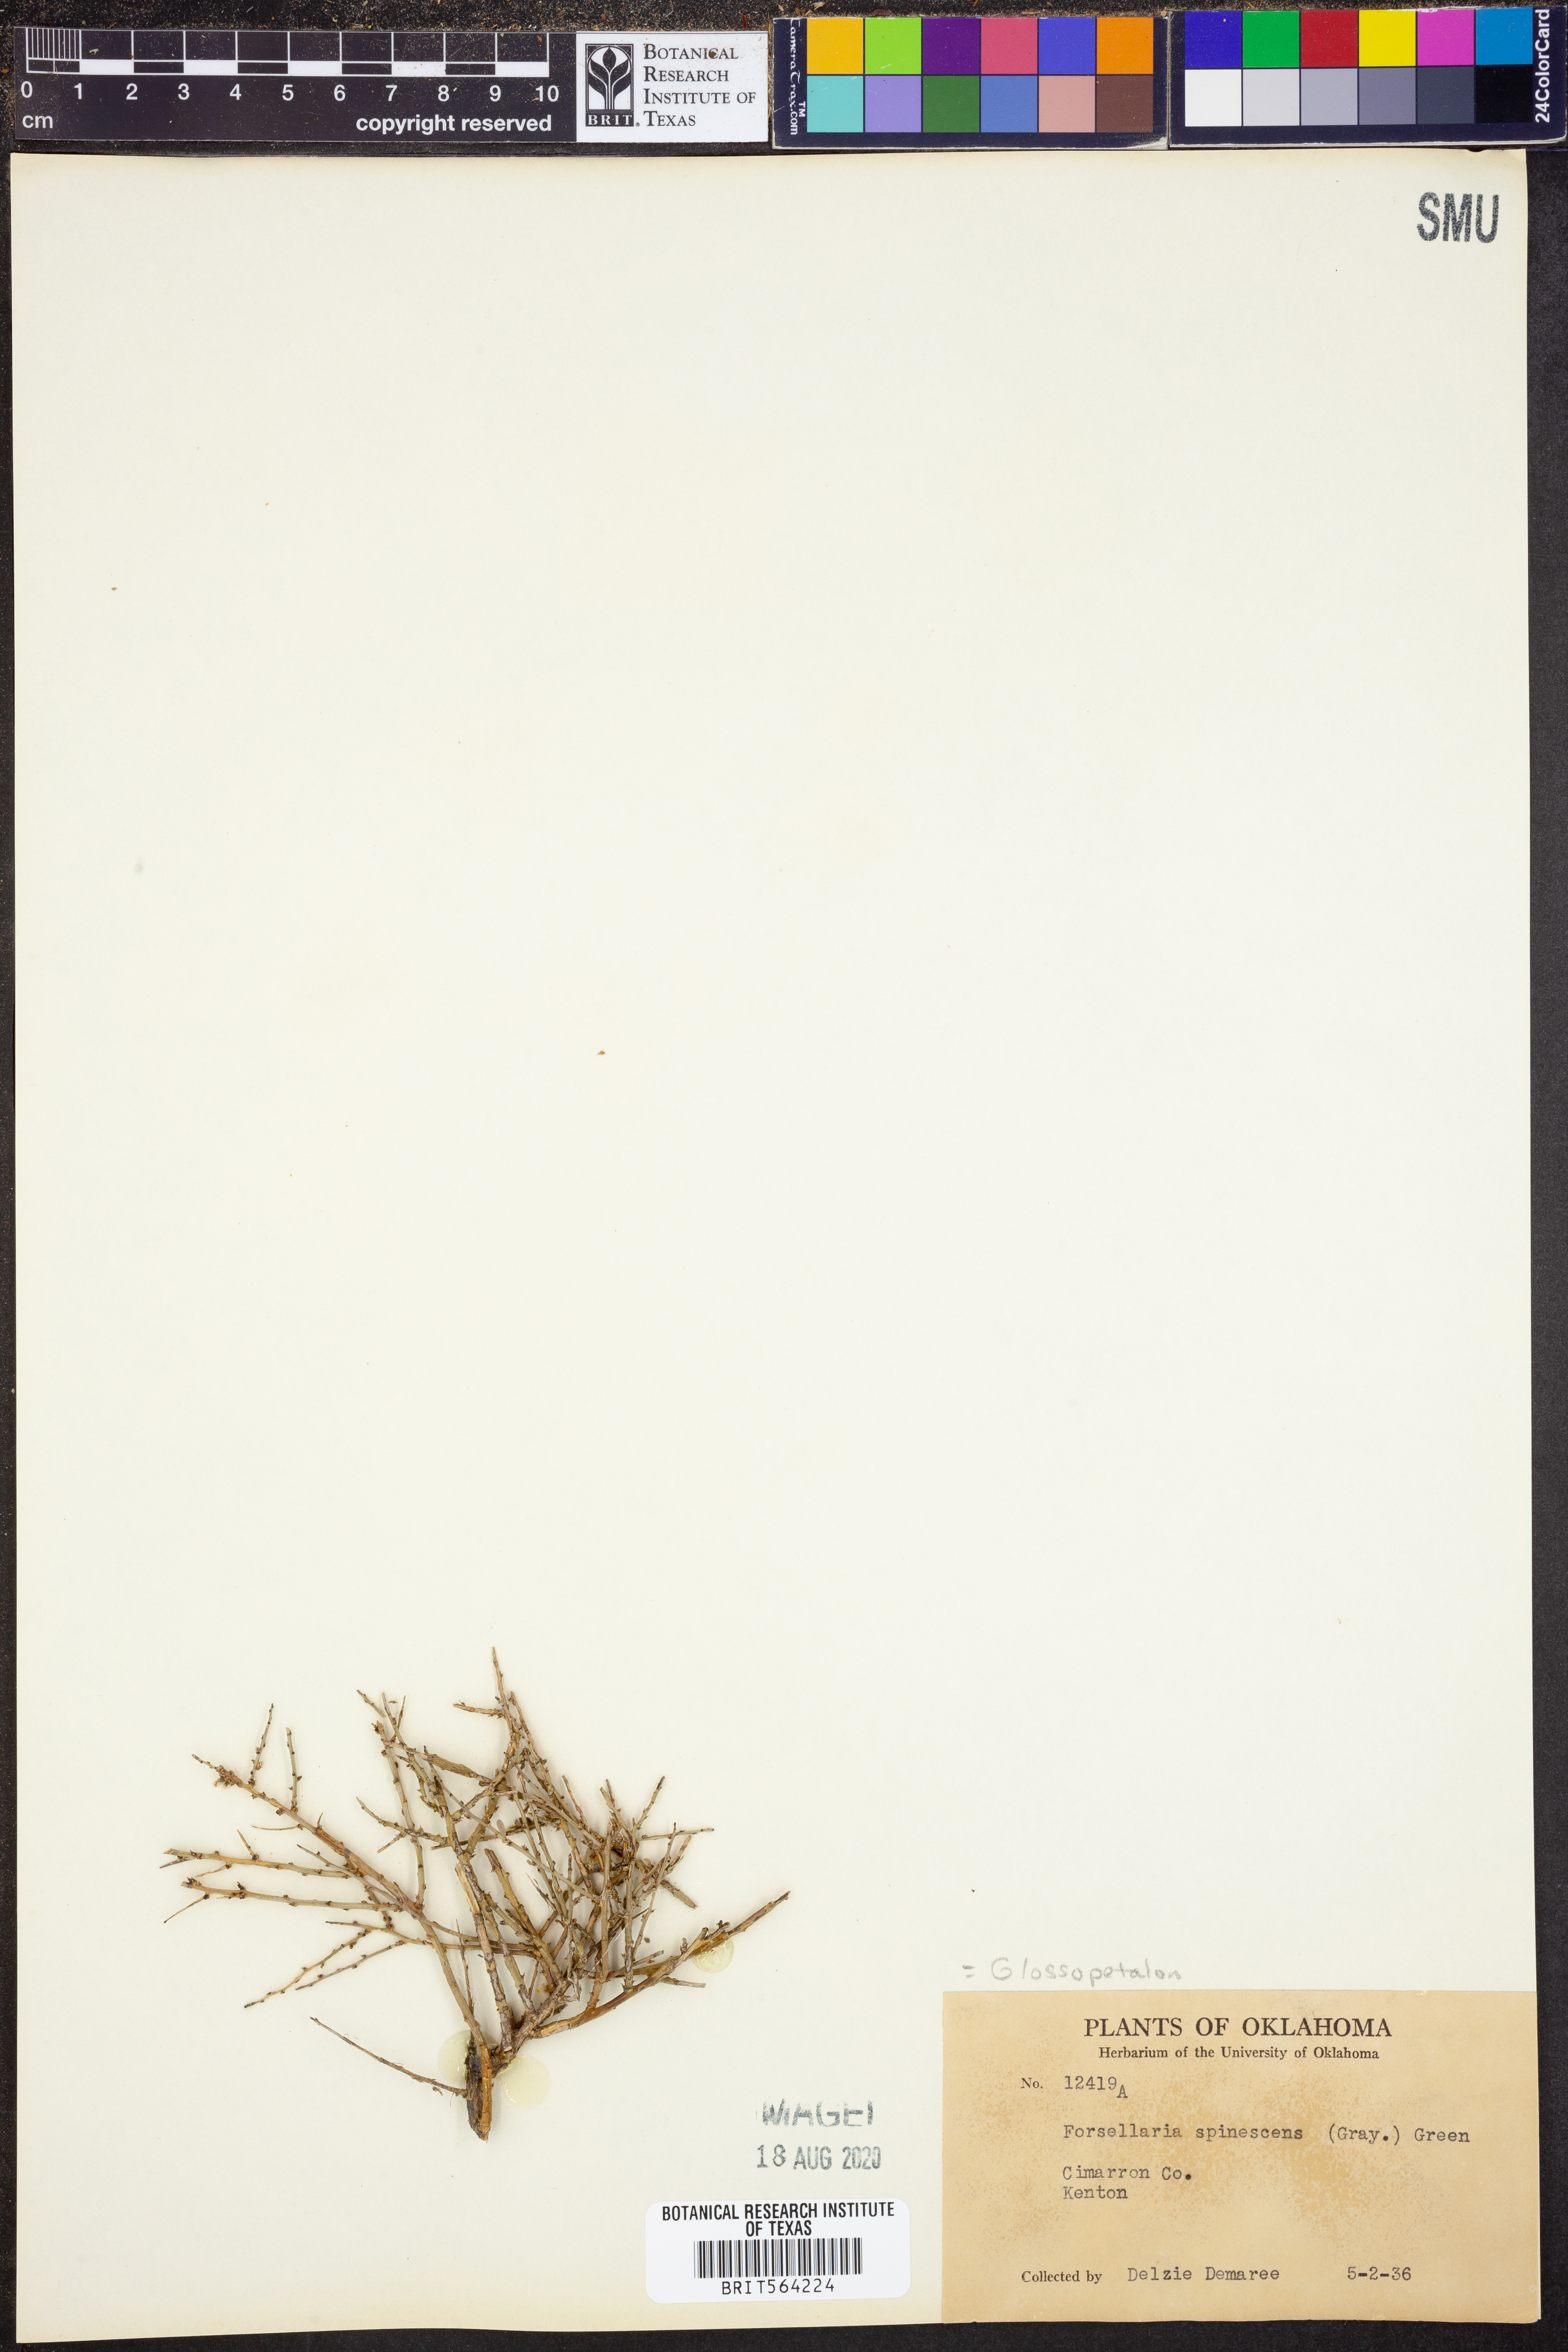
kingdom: Plantae
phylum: Tracheophyta
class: Magnoliopsida
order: Crossosomatales
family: Crossosomataceae
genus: Glossopetalon
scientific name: Glossopetalon spinescens
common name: Spring greasebush
